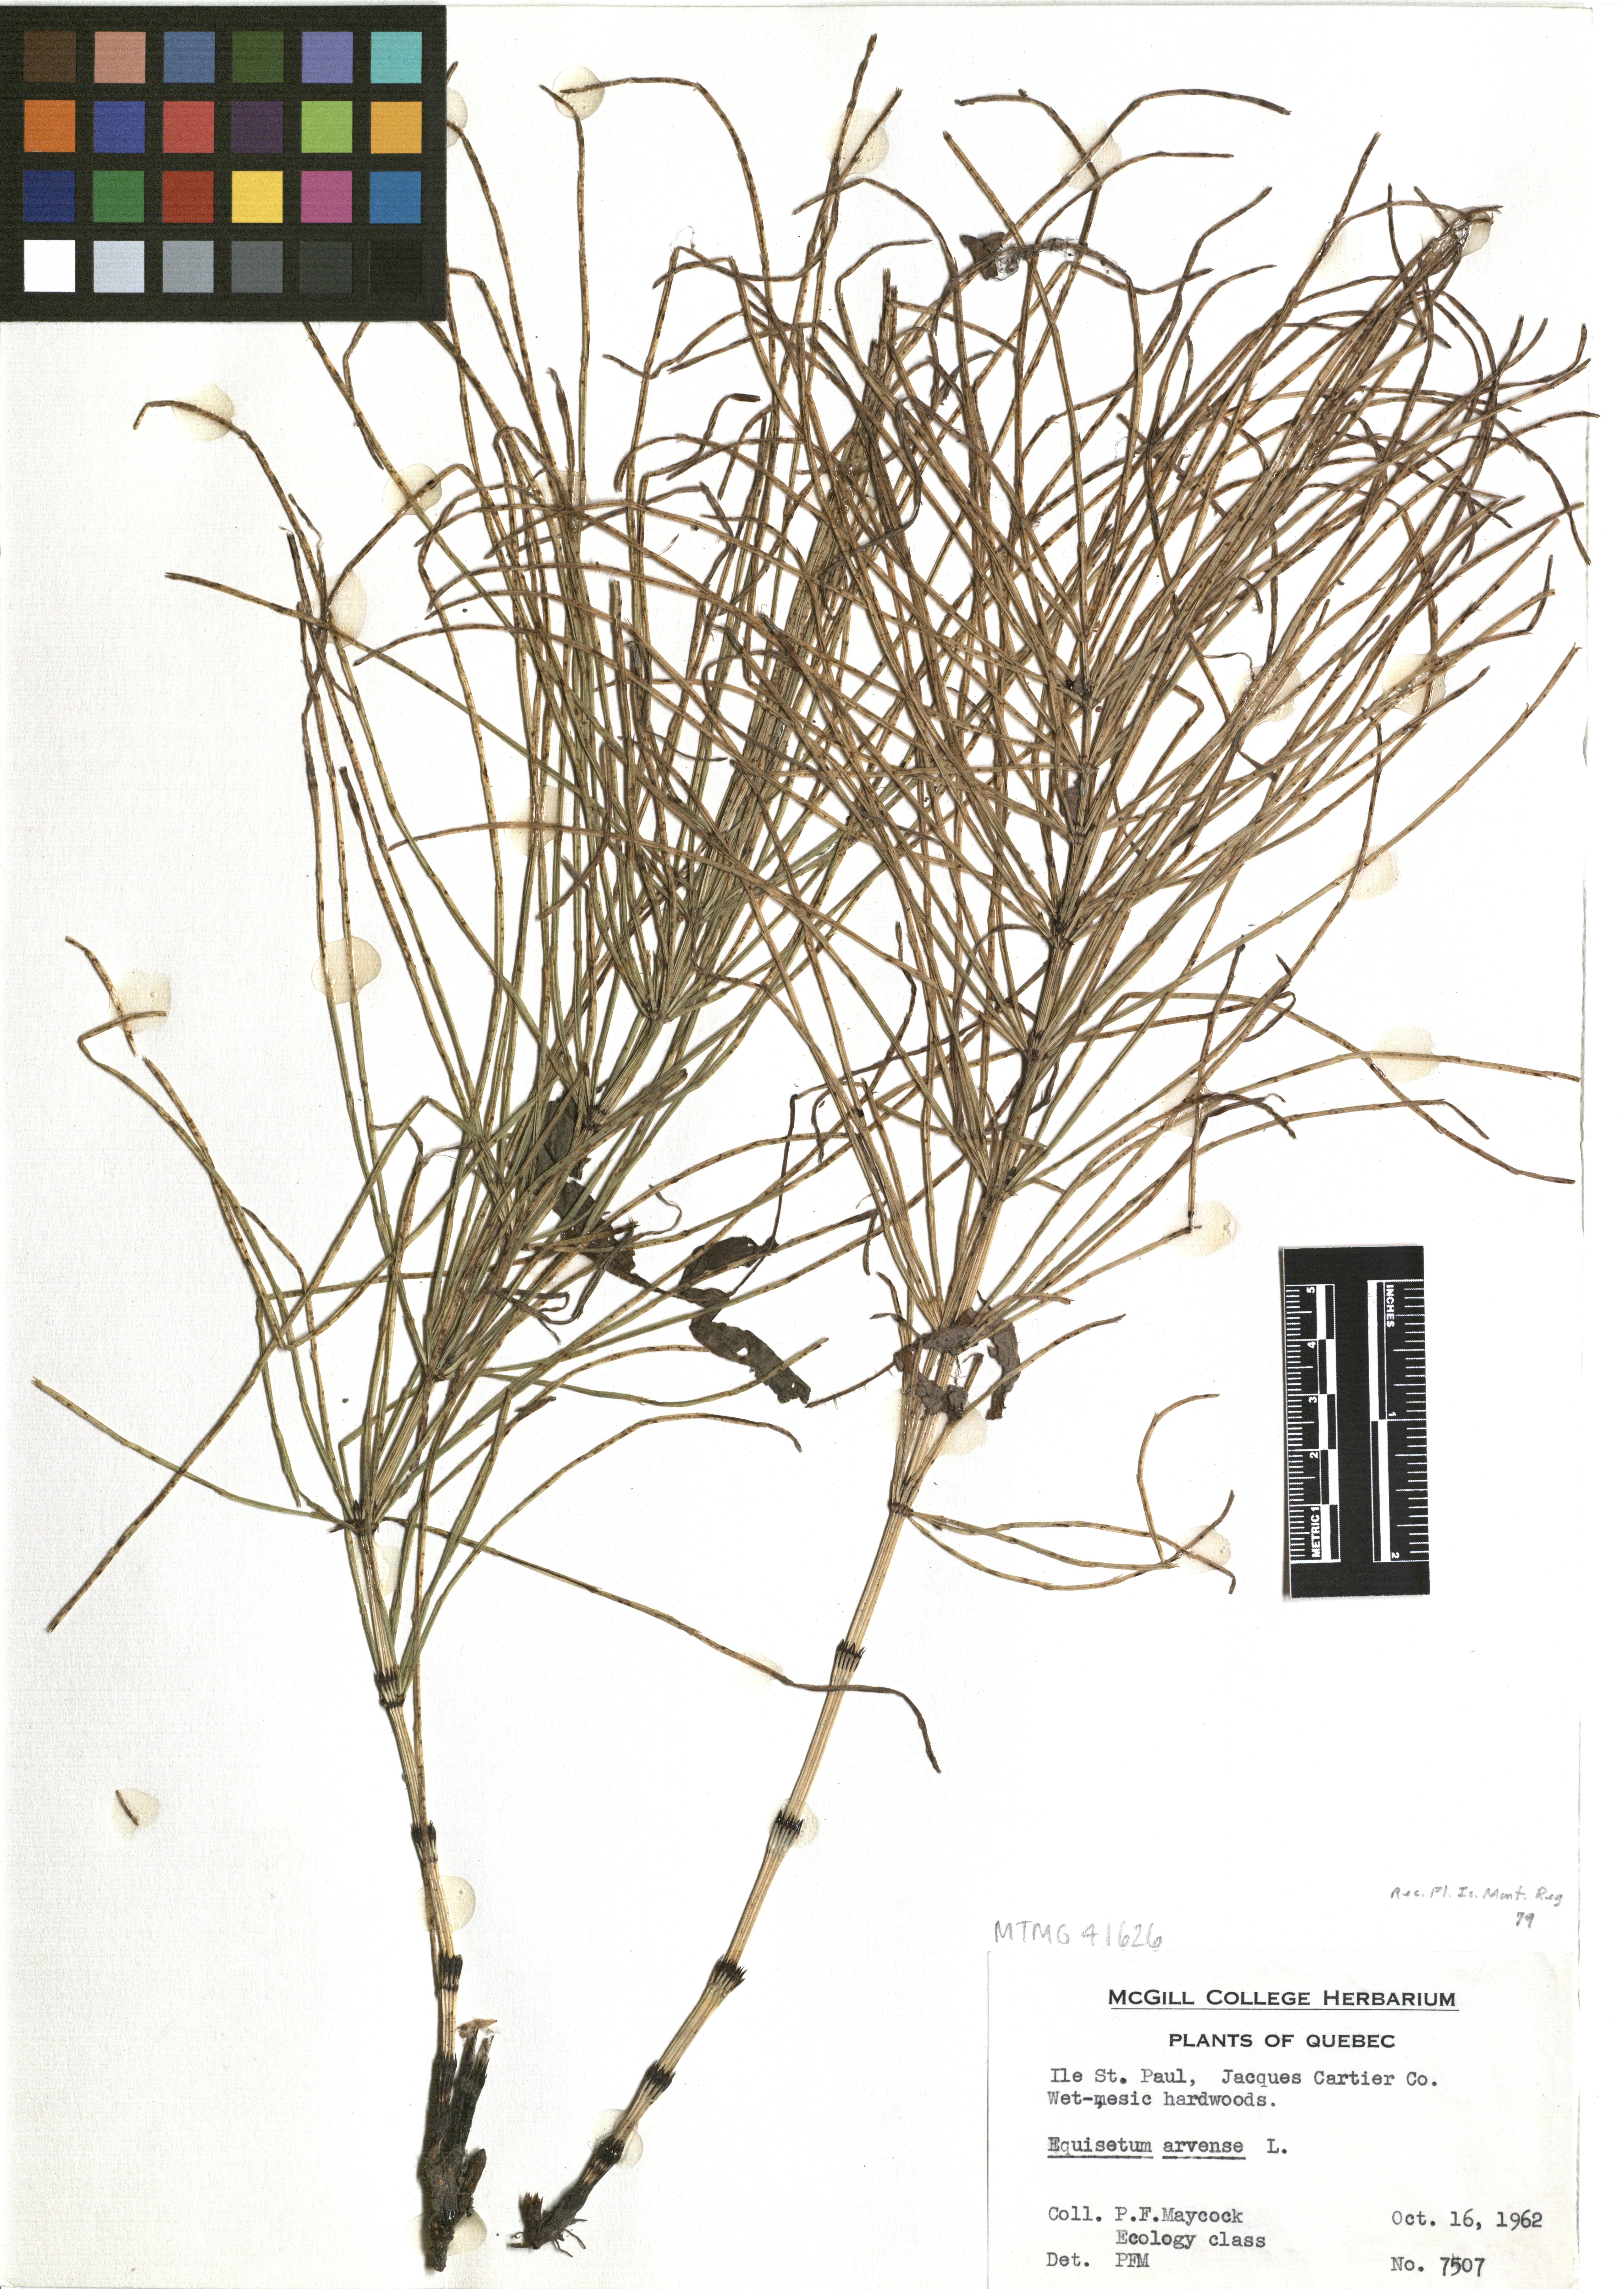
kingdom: Plantae
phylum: Tracheophyta
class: Polypodiopsida
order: Equisetales
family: Equisetaceae
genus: Equisetum
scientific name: Equisetum arvense
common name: Field horsetail
